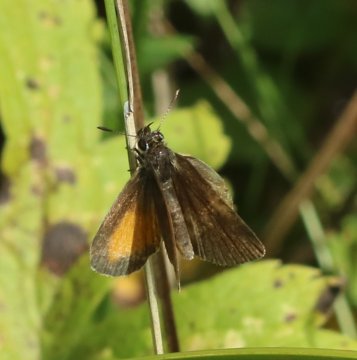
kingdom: Animalia
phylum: Arthropoda
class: Insecta
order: Lepidoptera
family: Hesperiidae
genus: Ancyloxypha
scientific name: Ancyloxypha numitor
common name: Least Skipper
